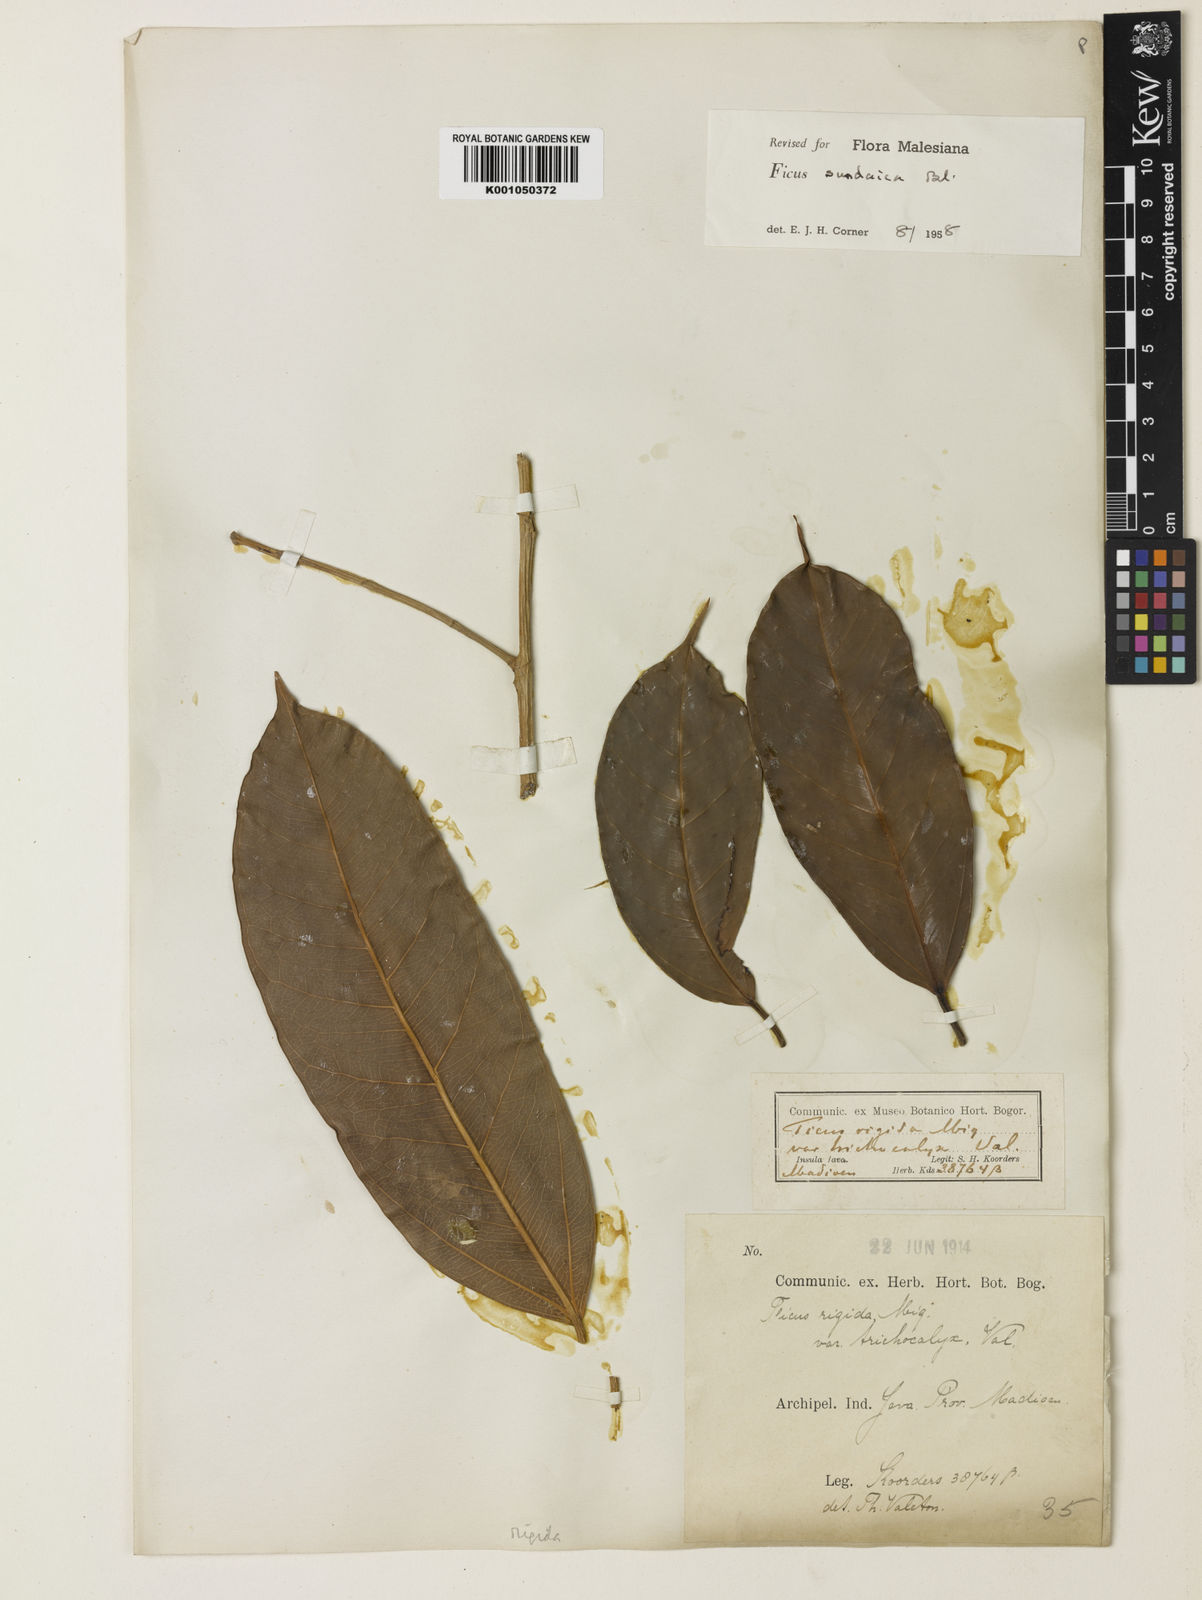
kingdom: Plantae
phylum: Tracheophyta
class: Magnoliopsida
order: Rosales
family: Moraceae
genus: Ficus
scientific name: Ficus sundaica
